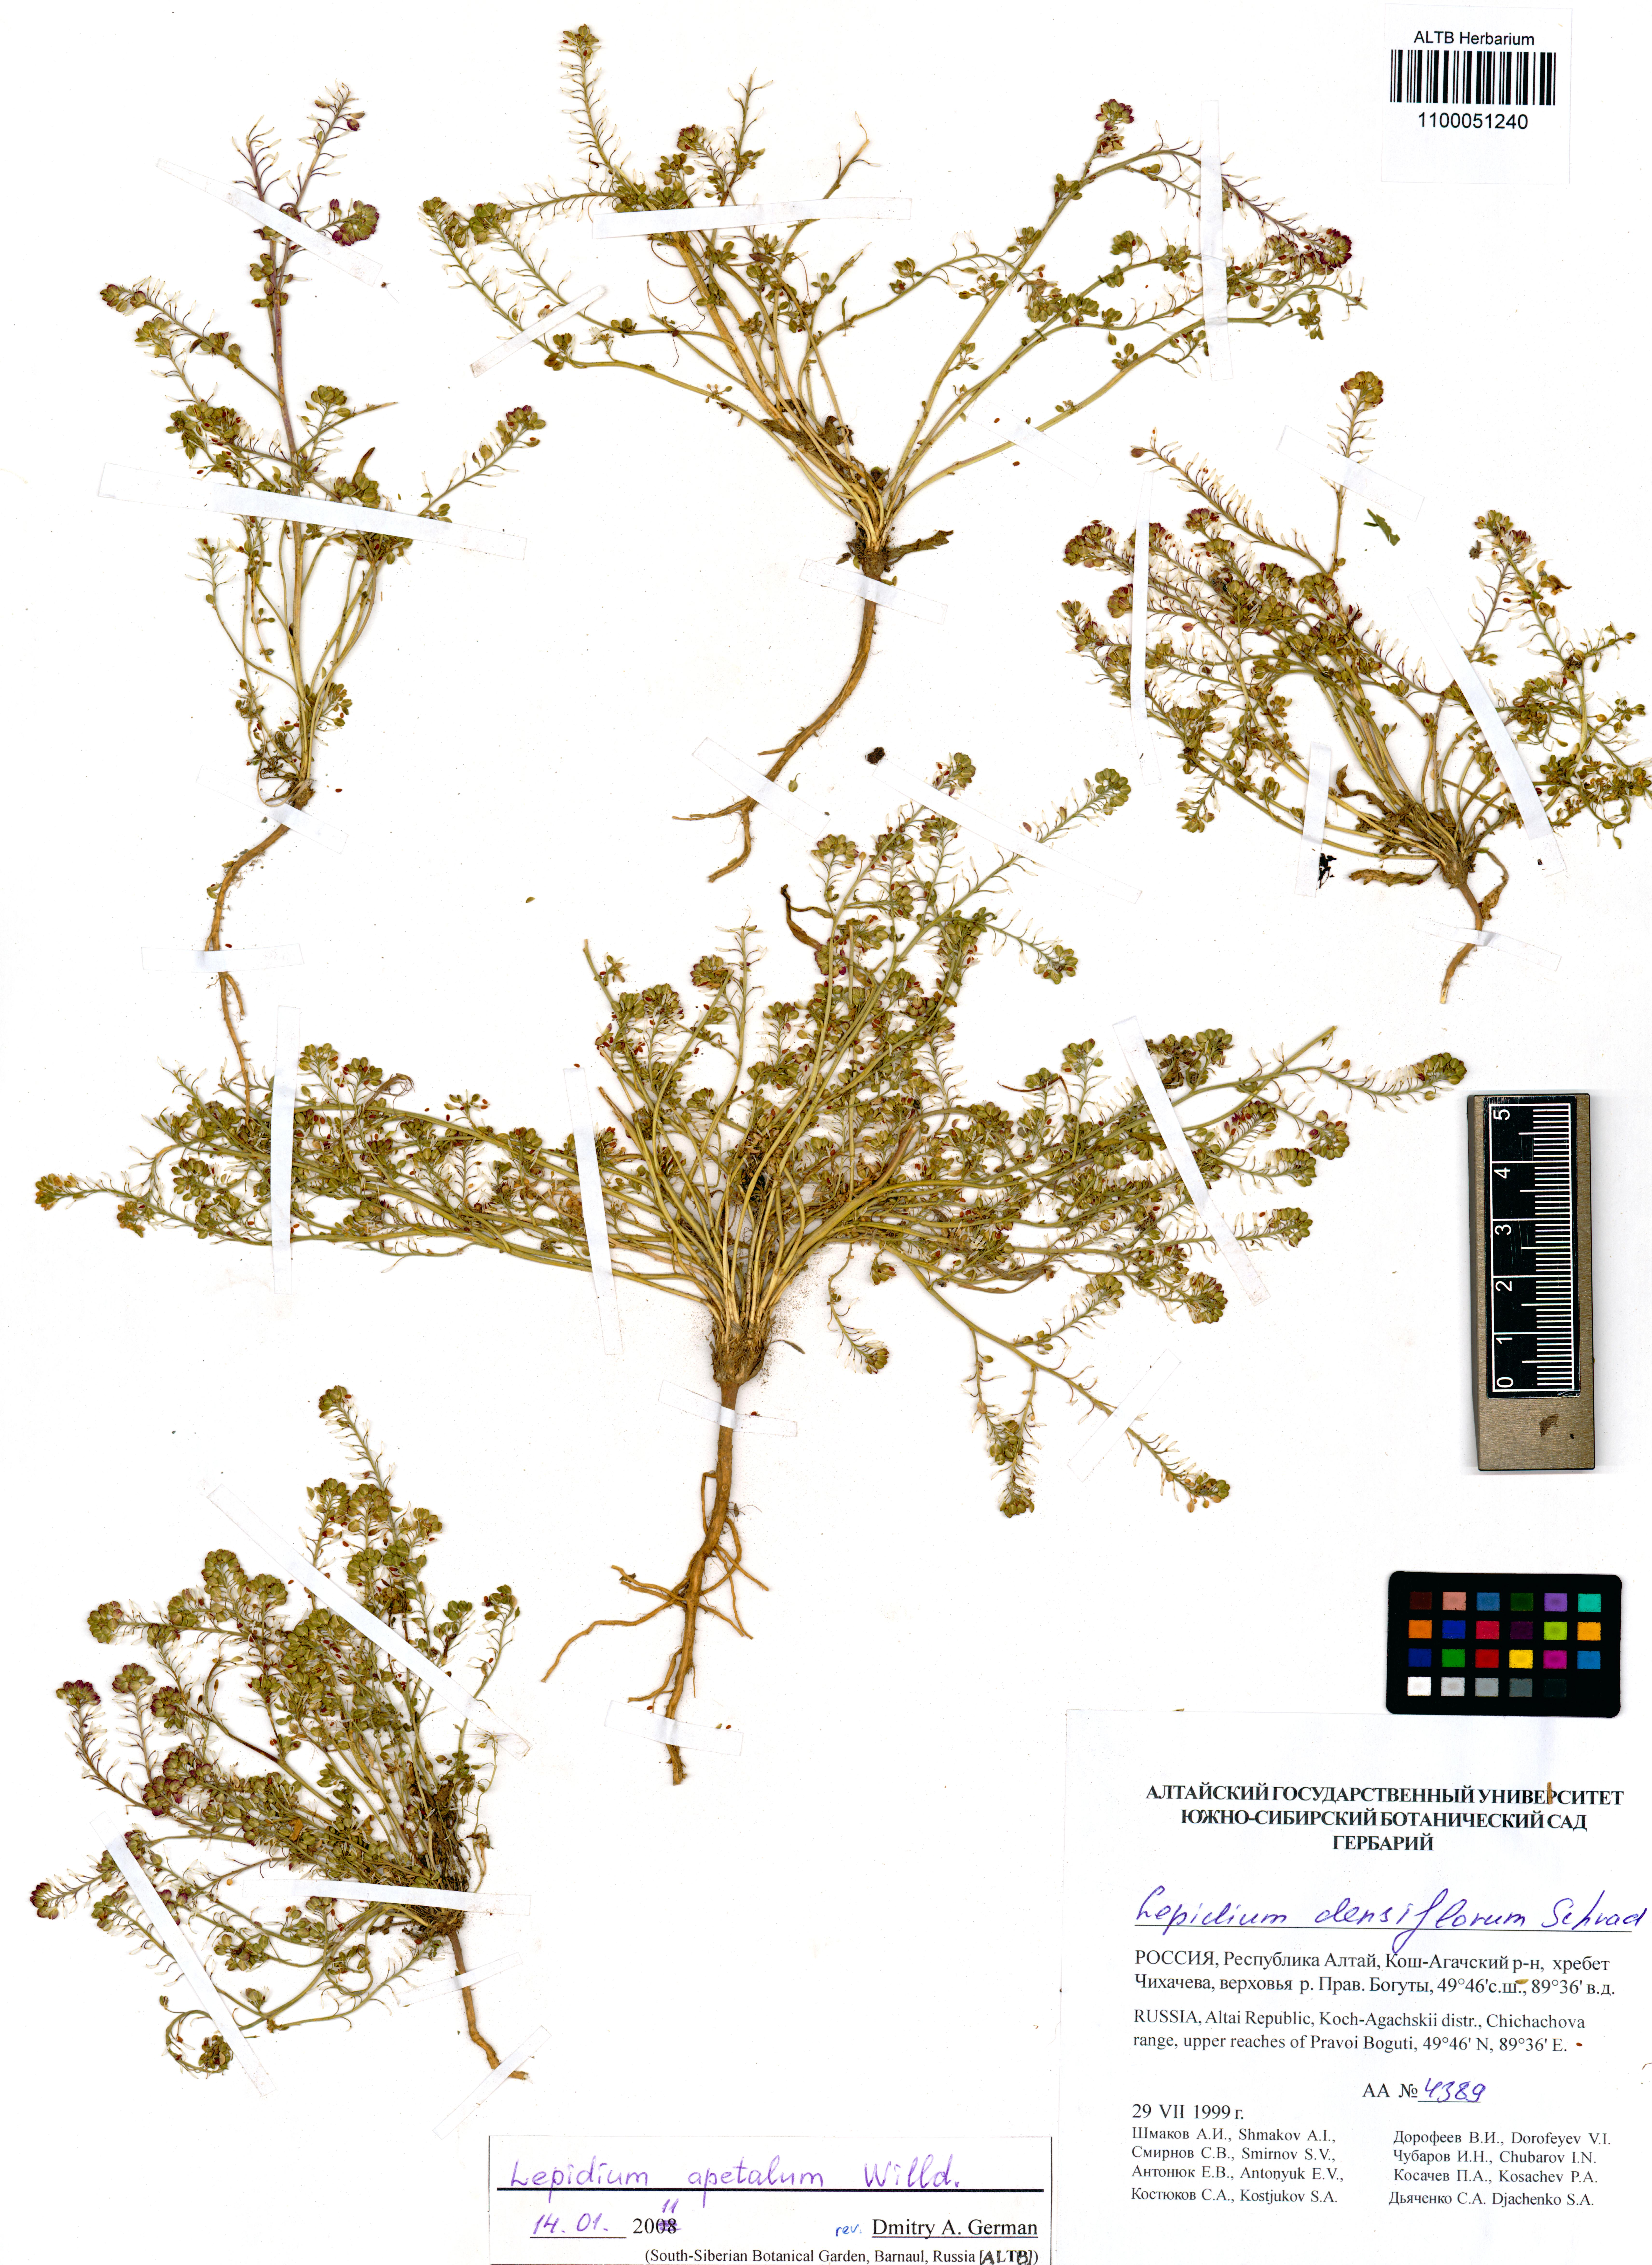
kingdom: Plantae
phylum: Tracheophyta
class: Magnoliopsida
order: Brassicales
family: Brassicaceae
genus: Lepidium
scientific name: Lepidium apetalum
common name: Pepperweed
